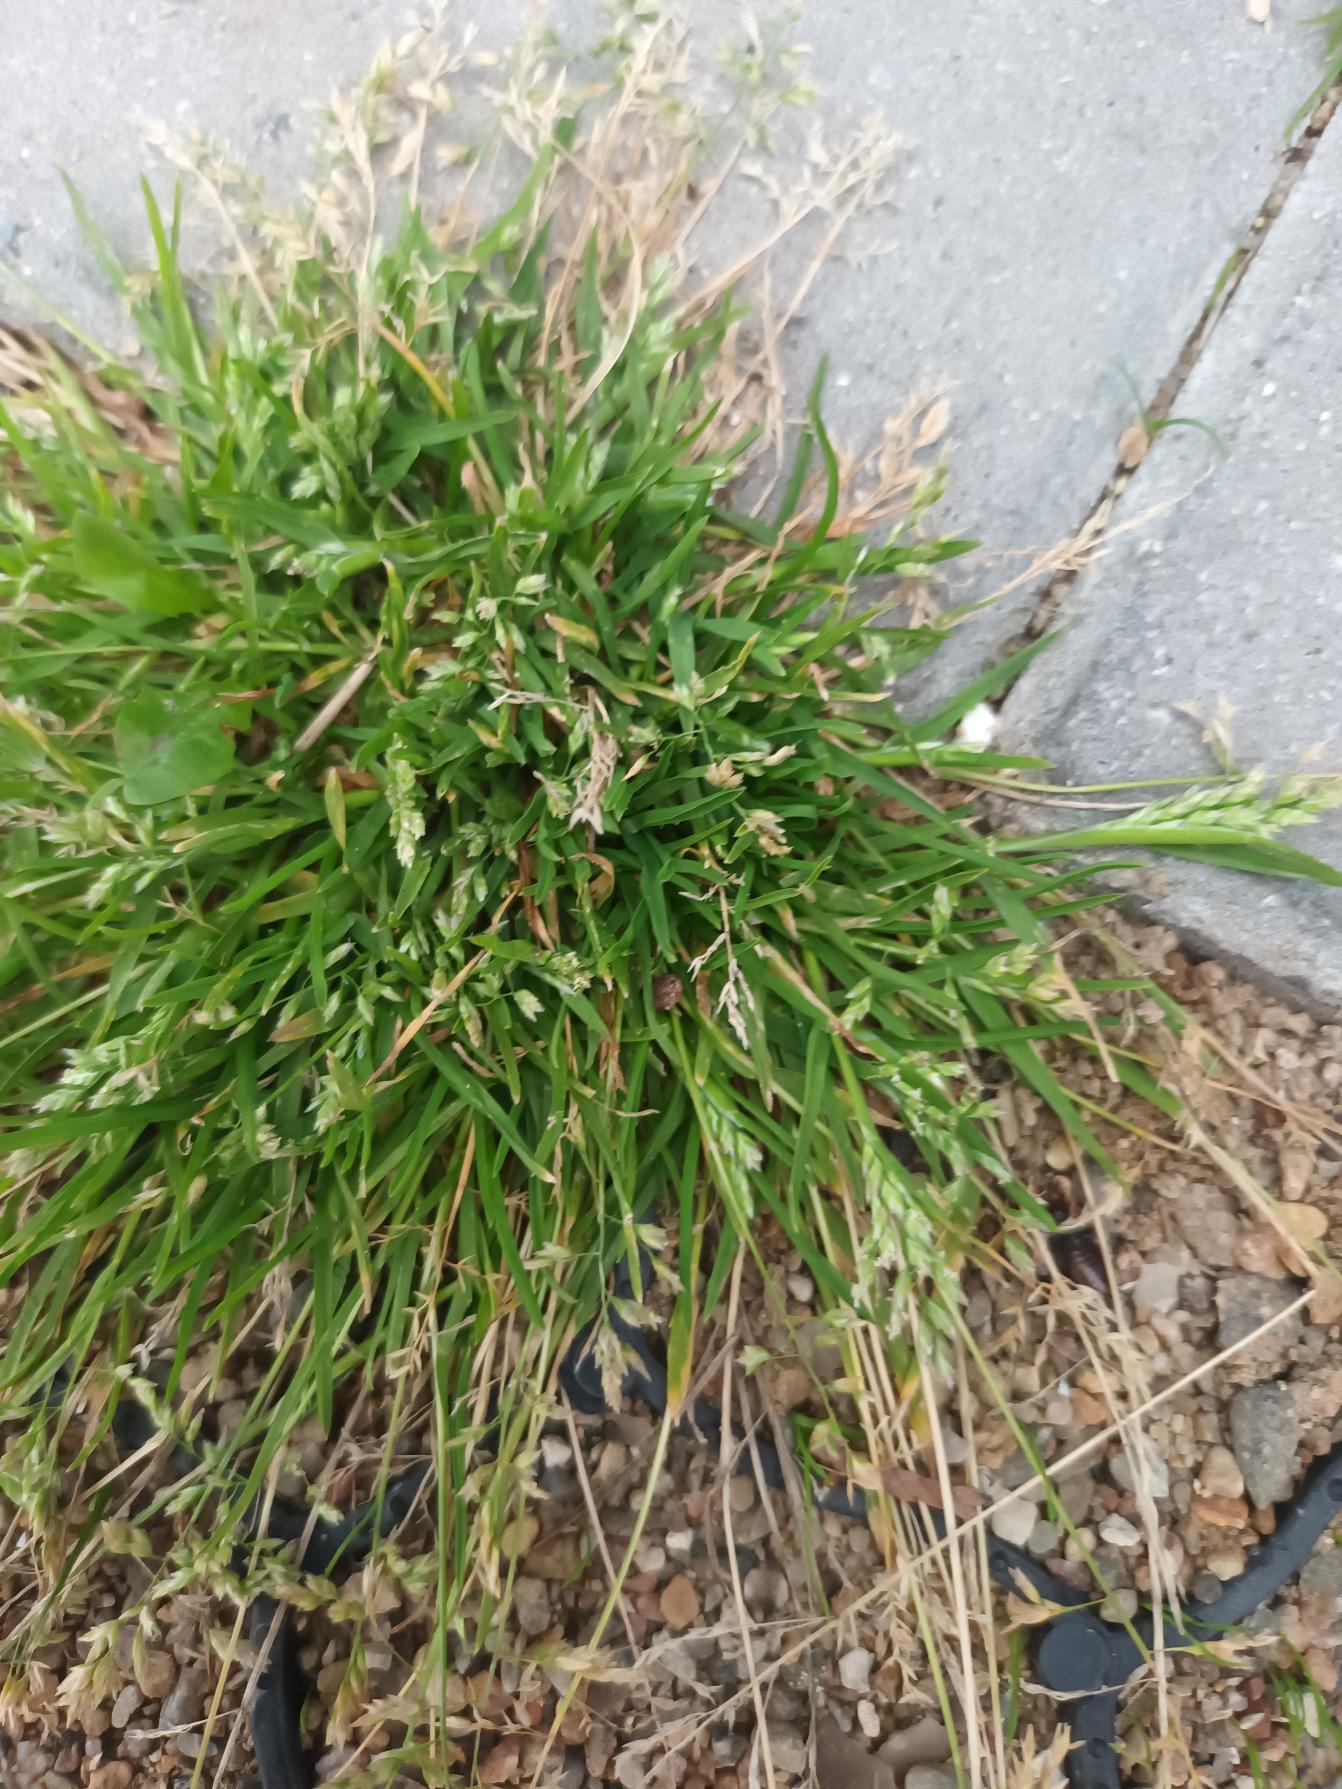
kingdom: Plantae
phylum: Tracheophyta
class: Liliopsida
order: Poales
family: Poaceae
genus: Poa
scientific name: Poa annua
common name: Enårig rapgræs
